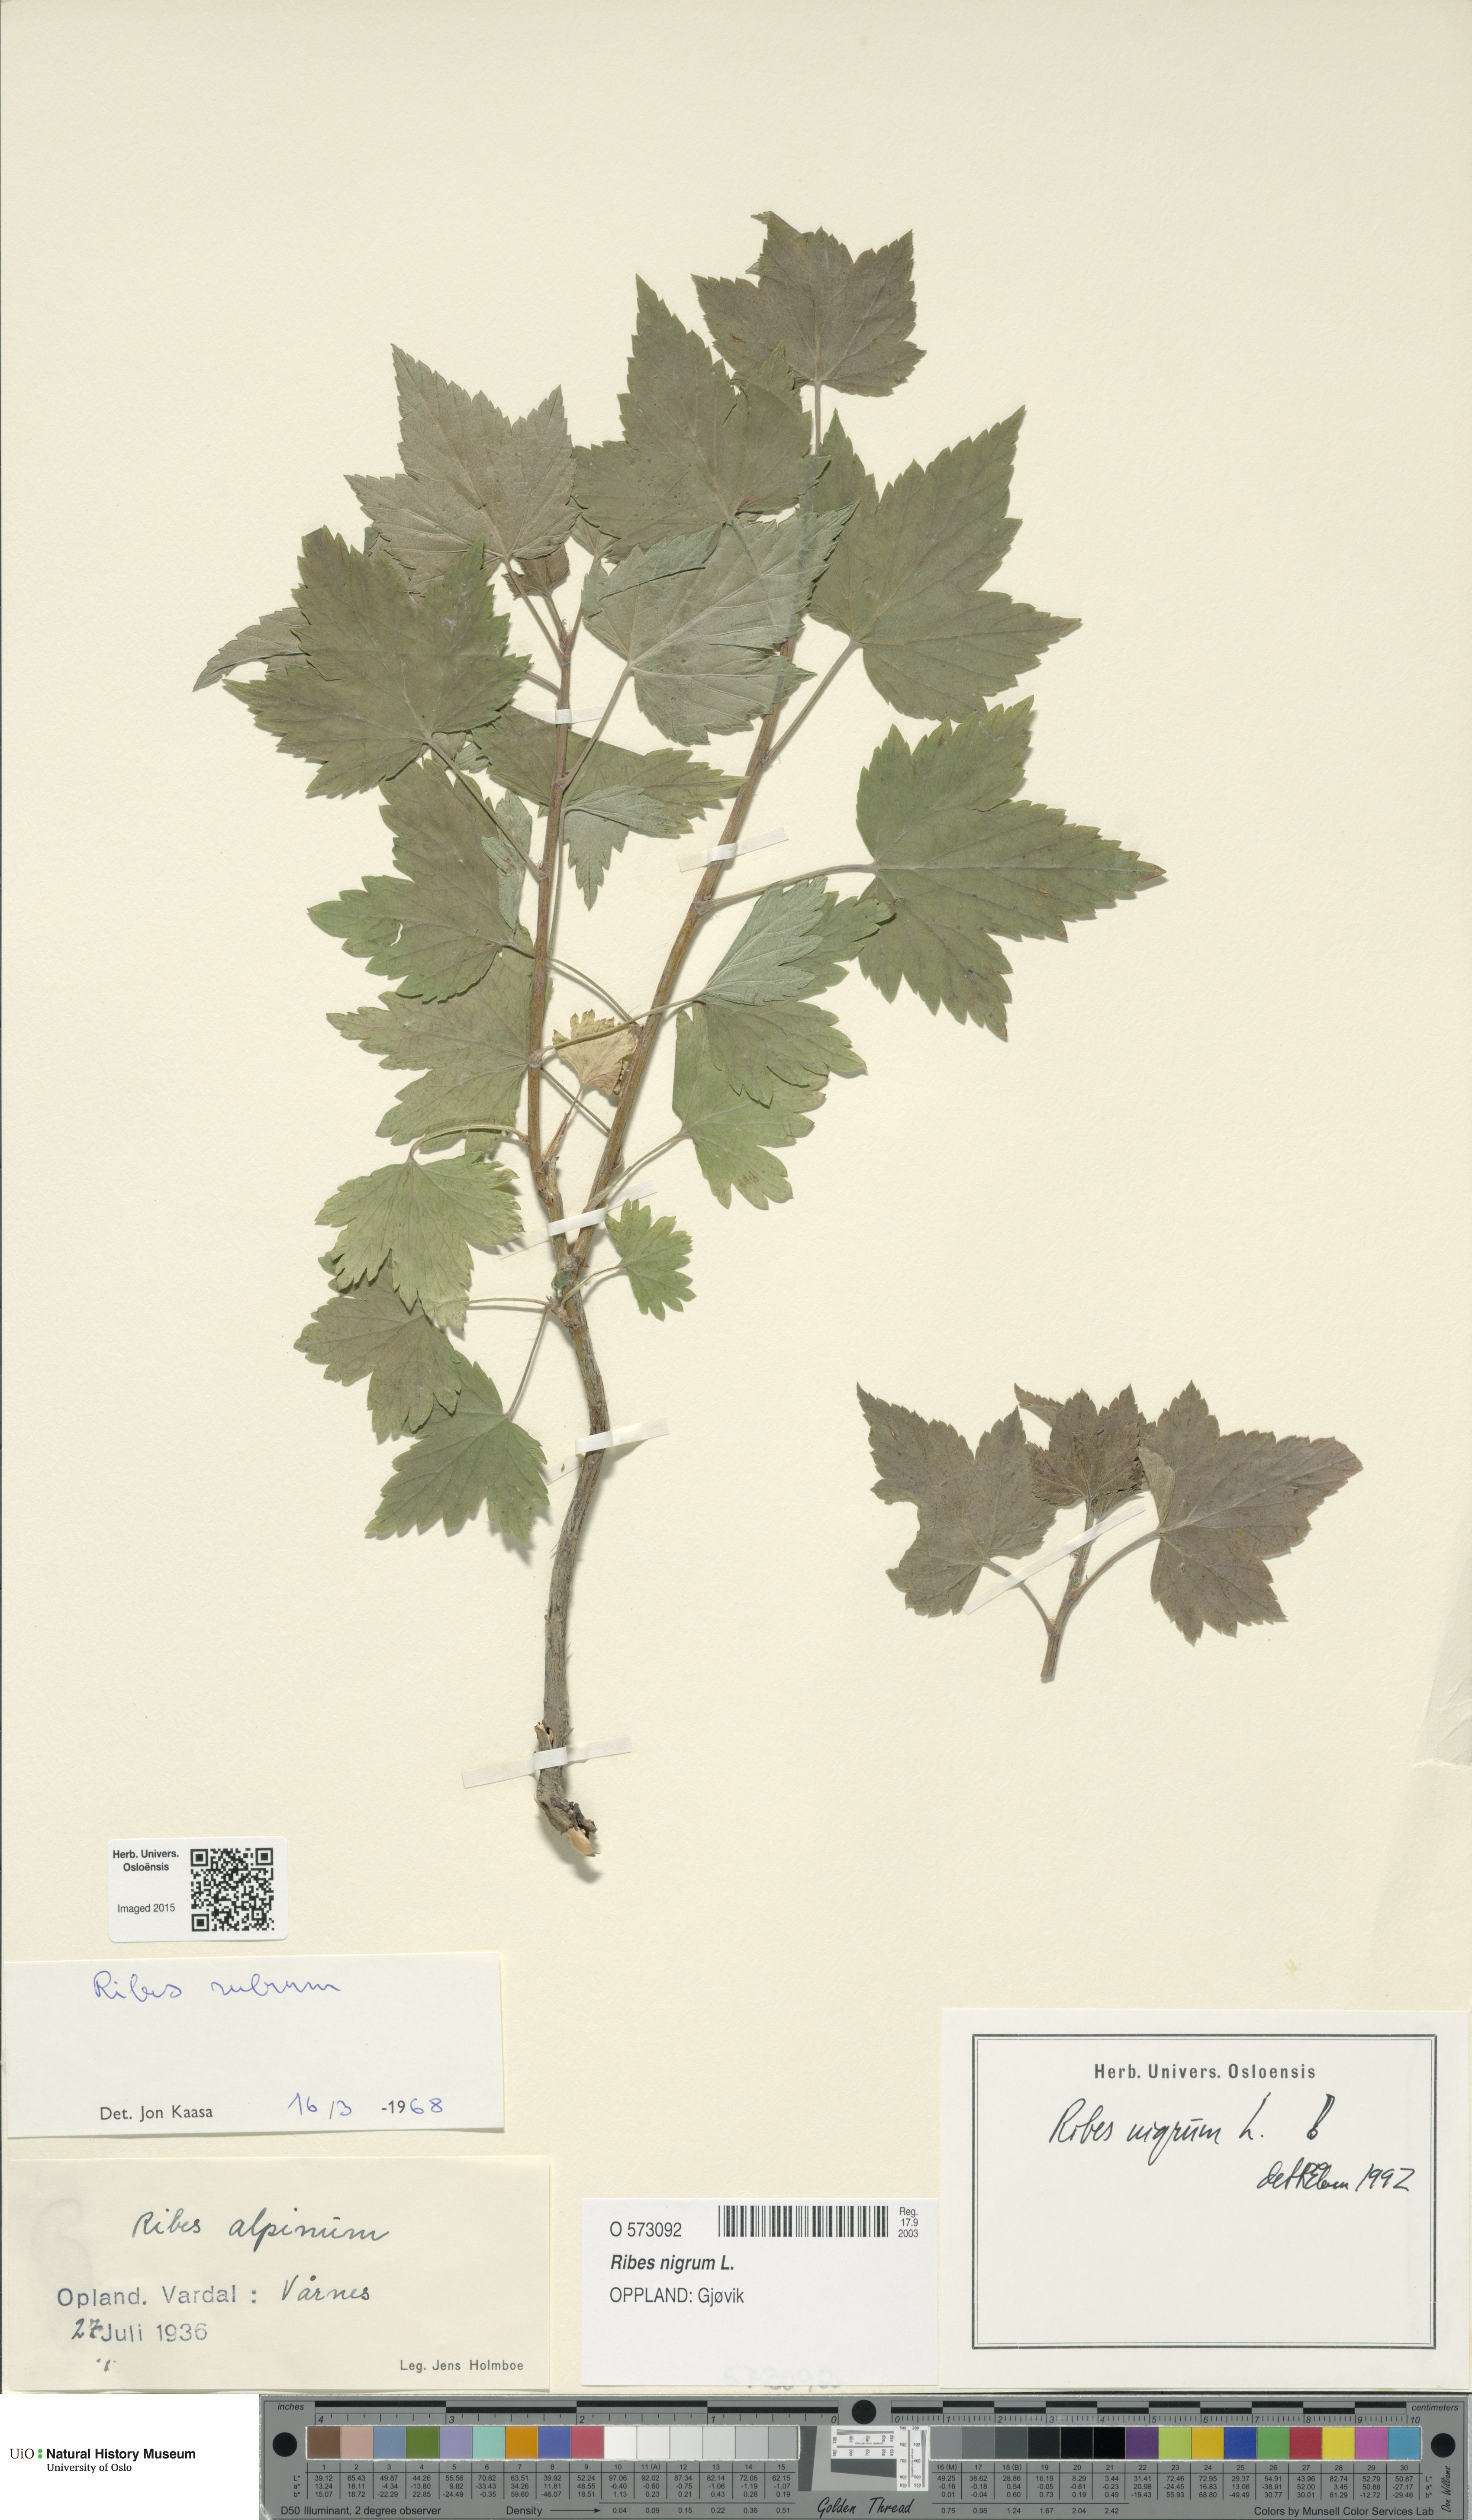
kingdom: Plantae
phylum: Tracheophyta
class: Magnoliopsida
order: Saxifragales
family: Grossulariaceae
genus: Ribes
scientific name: Ribes nigrum
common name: Black currant
